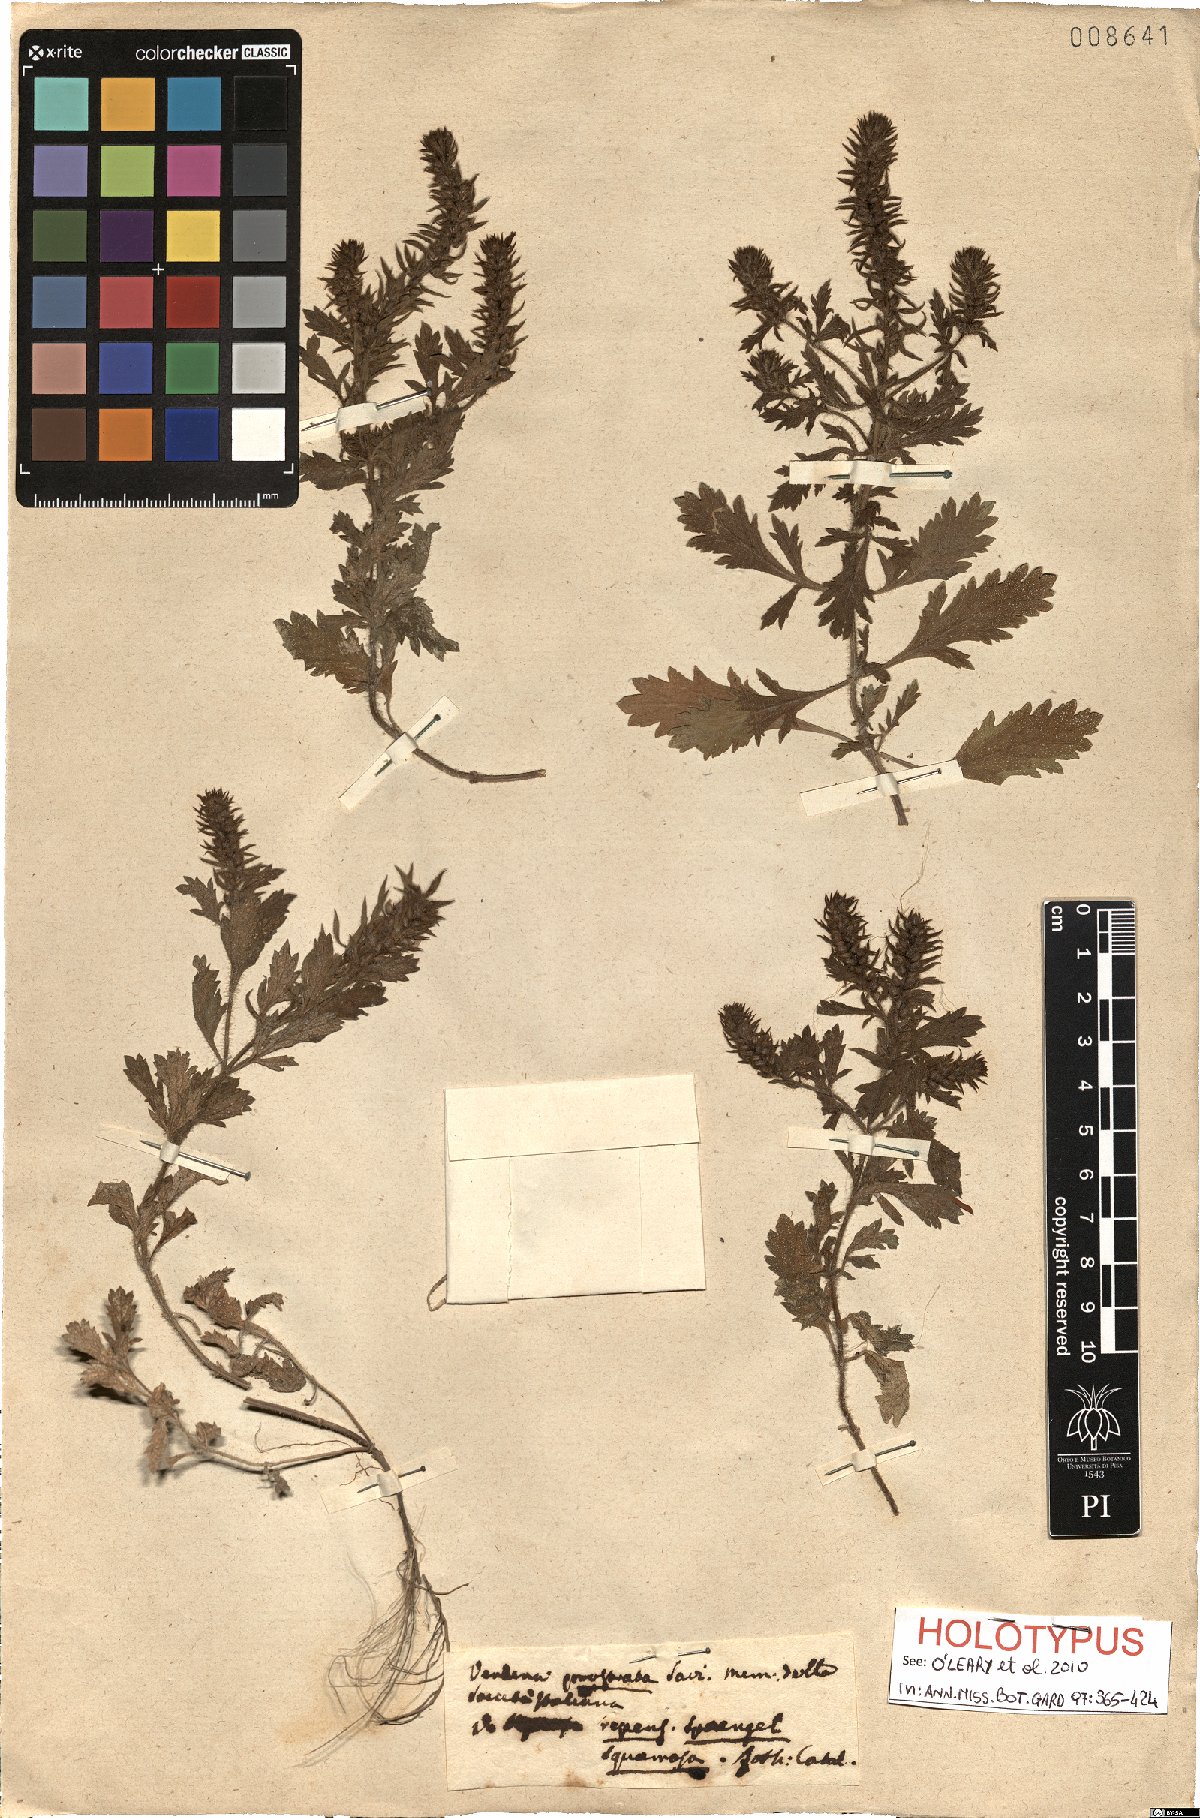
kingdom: Plantae
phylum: Tracheophyta
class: Magnoliopsida
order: Lamiales
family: Verbenaceae
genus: Verbena
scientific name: Verbena bracteata
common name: Bracted vervain
